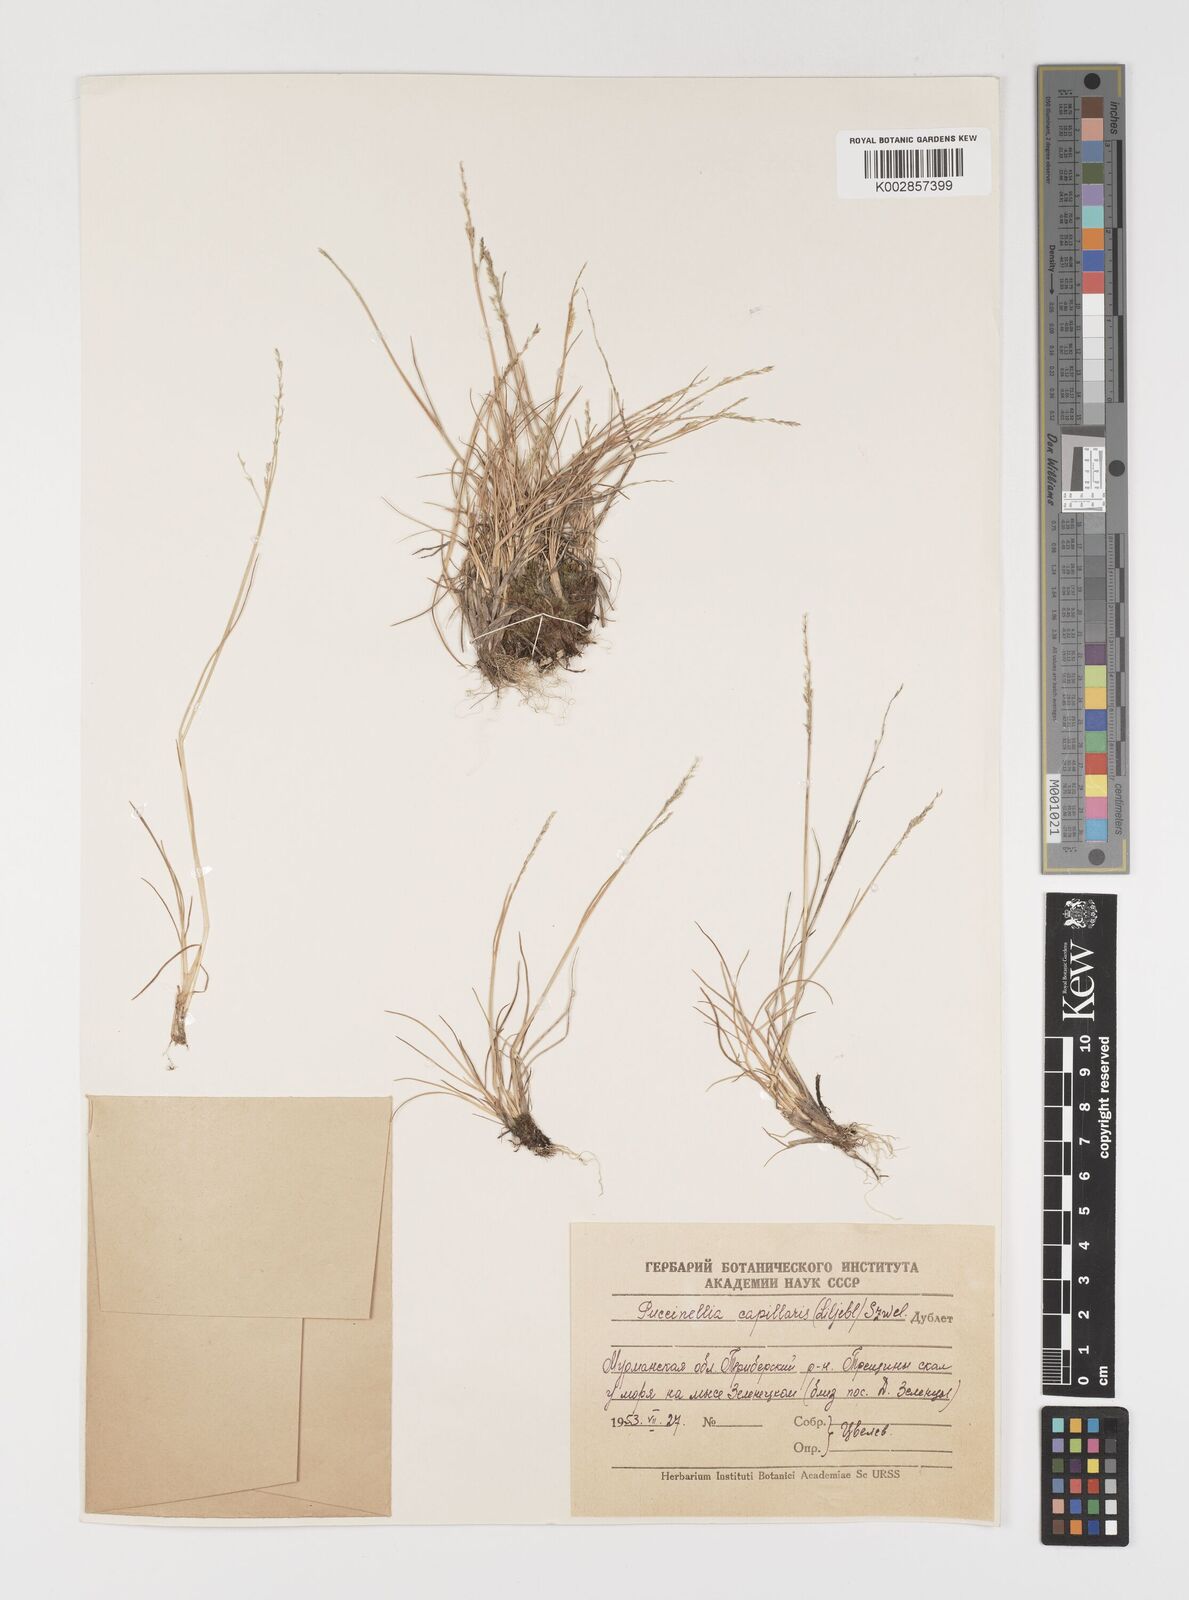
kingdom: Plantae
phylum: Tracheophyta
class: Liliopsida
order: Poales
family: Poaceae
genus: Puccinellia
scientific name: Puccinellia distans
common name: Weeping alkaligrass
